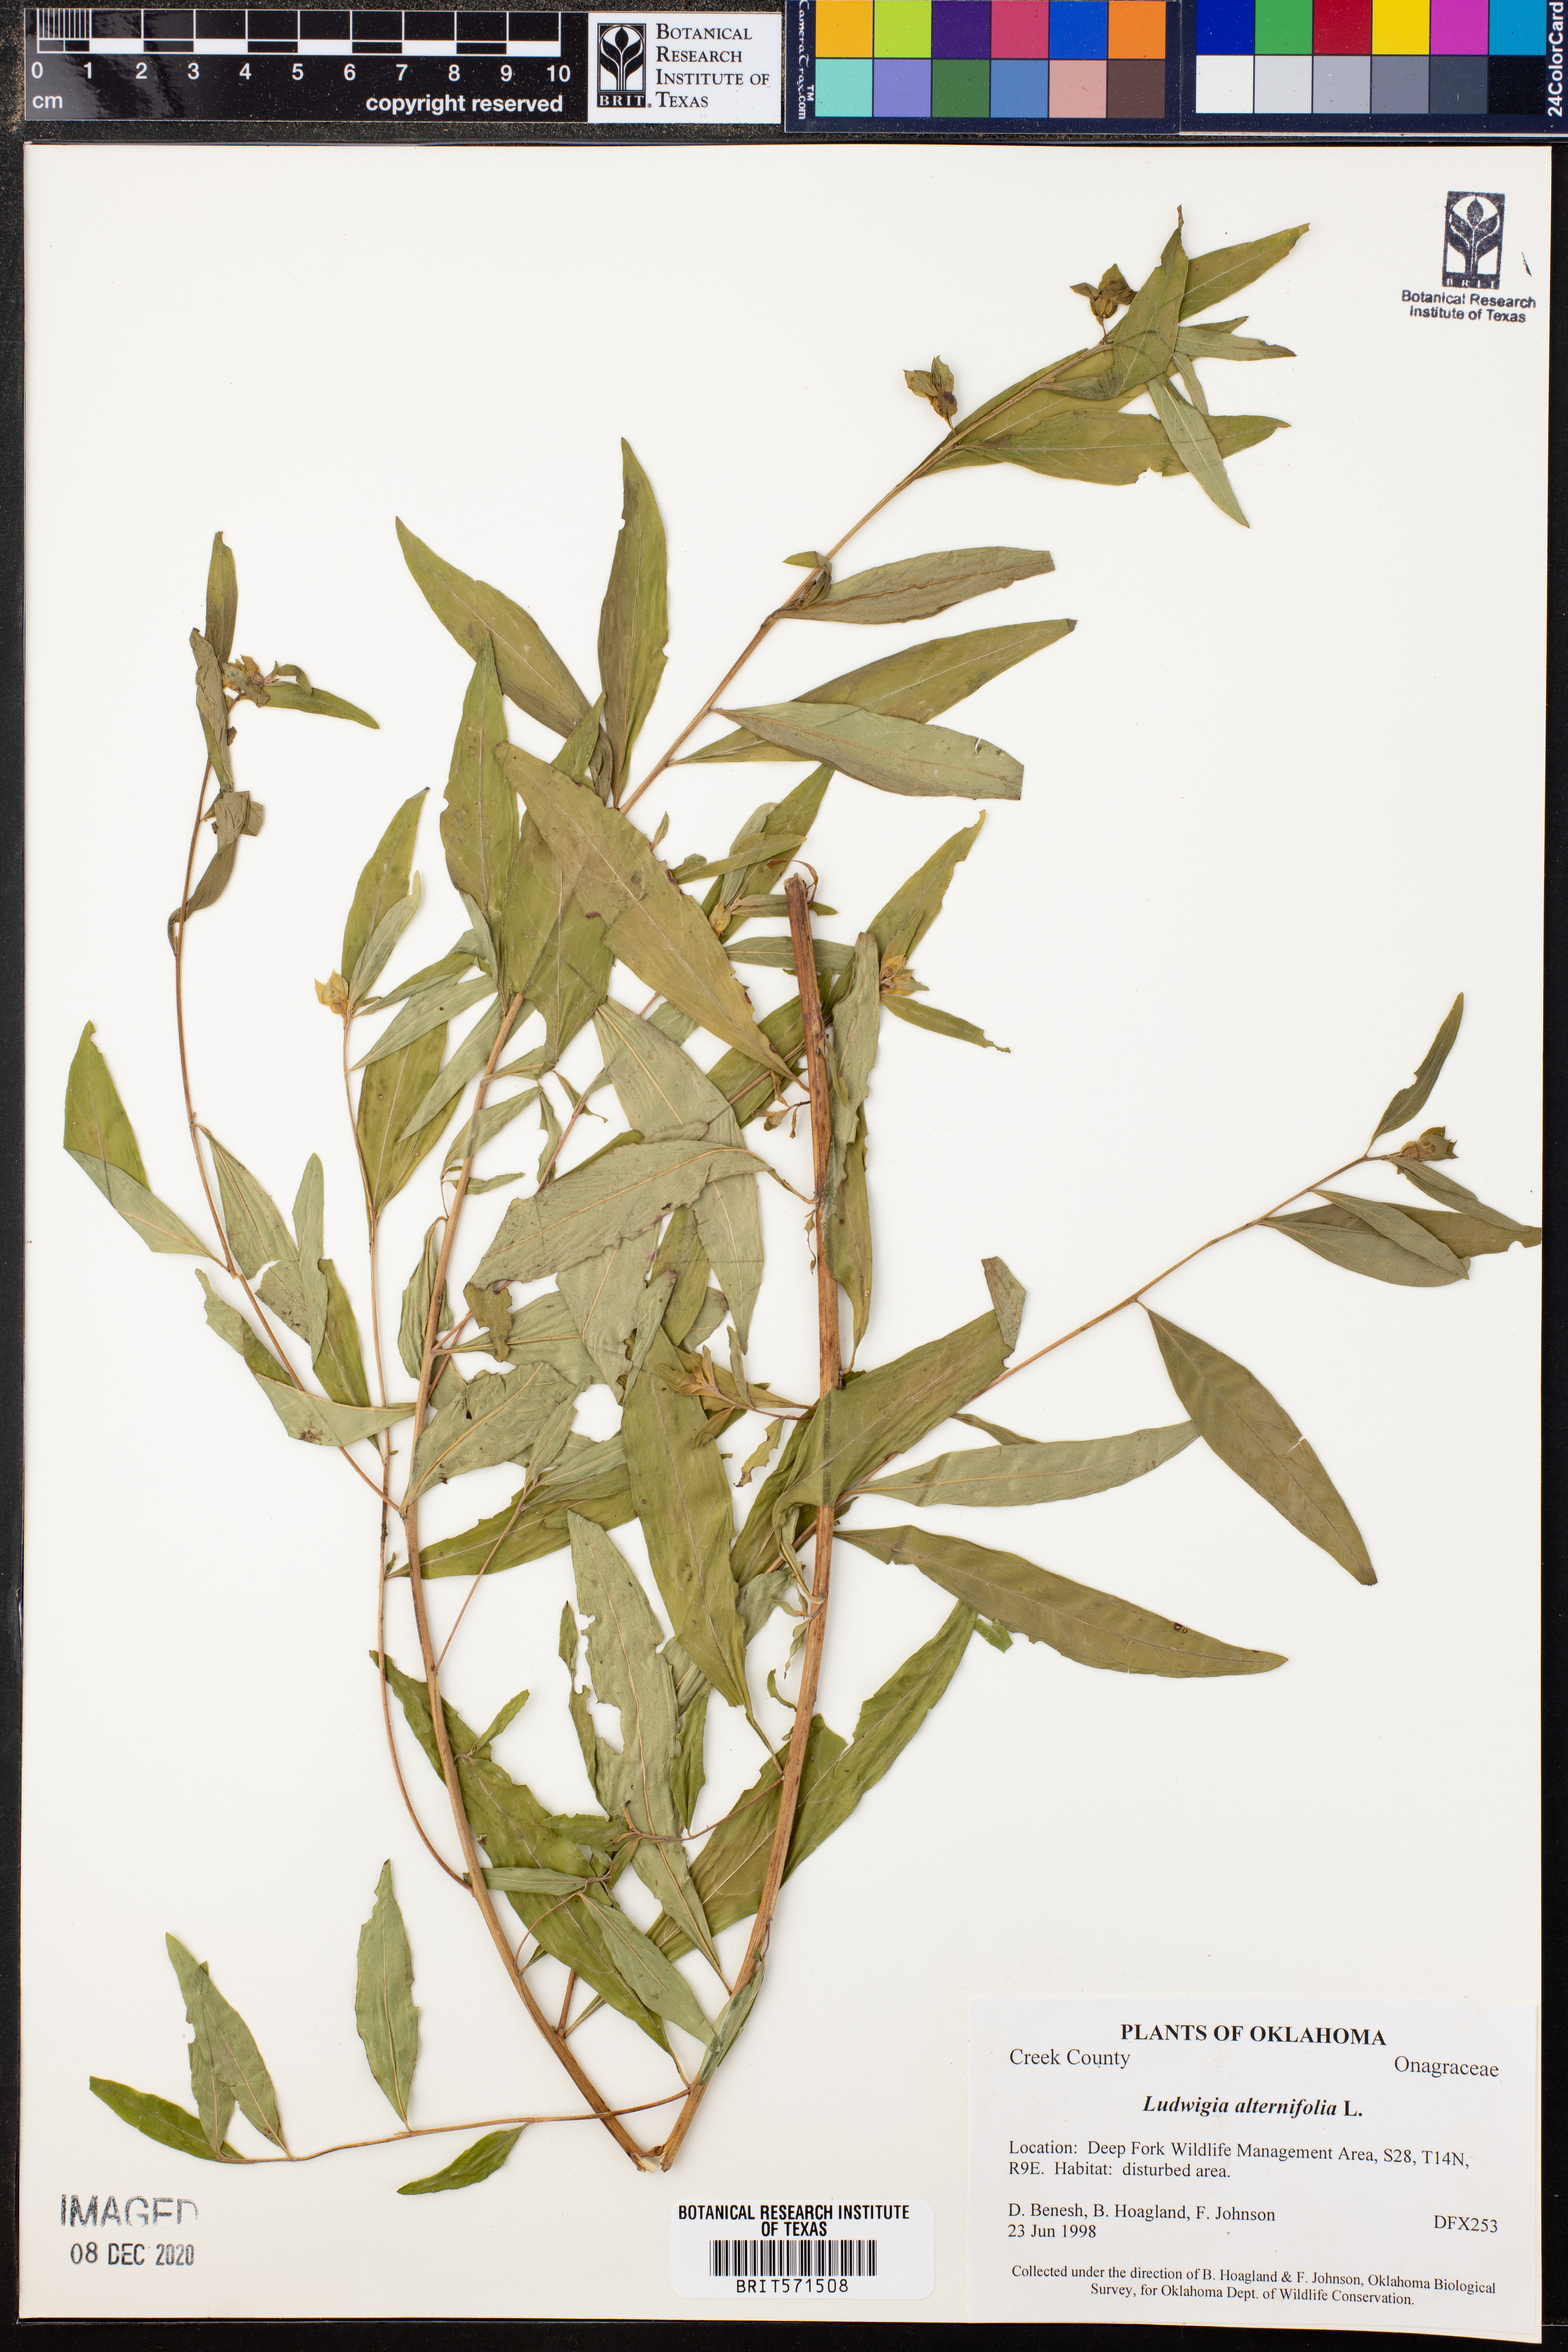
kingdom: Plantae
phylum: Tracheophyta
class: Magnoliopsida
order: Myrtales
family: Onagraceae
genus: Ludwigia
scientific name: Ludwigia alternifolia
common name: Rattlebox
